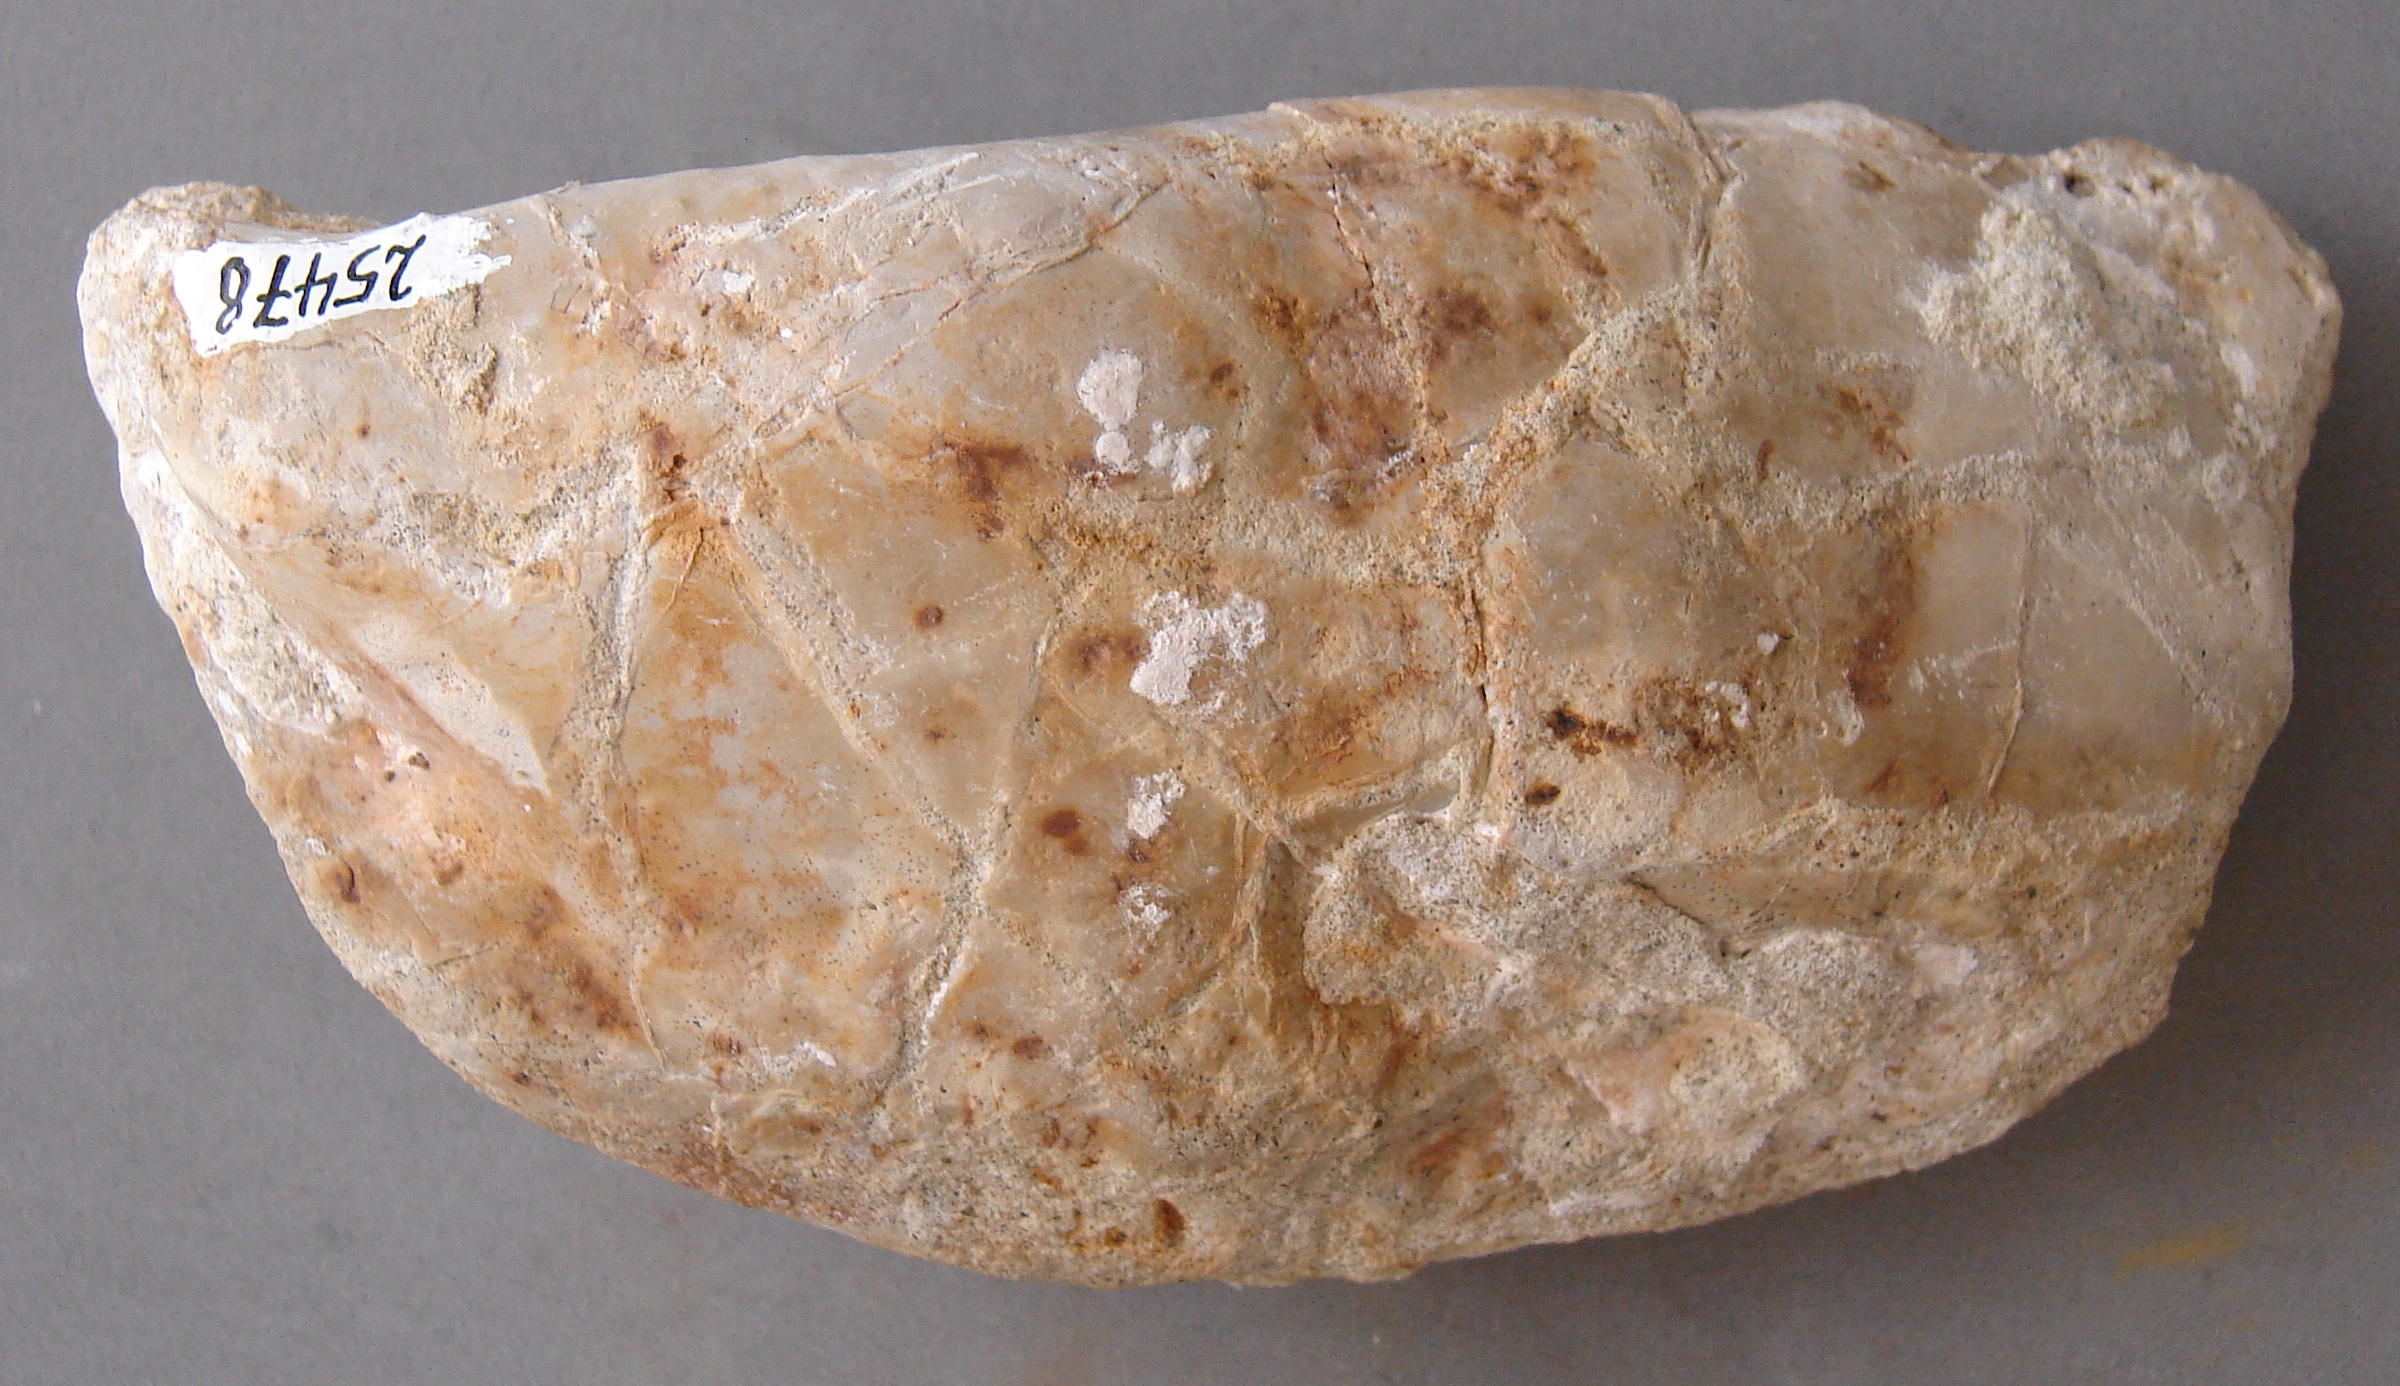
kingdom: Animalia
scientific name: Animalia
